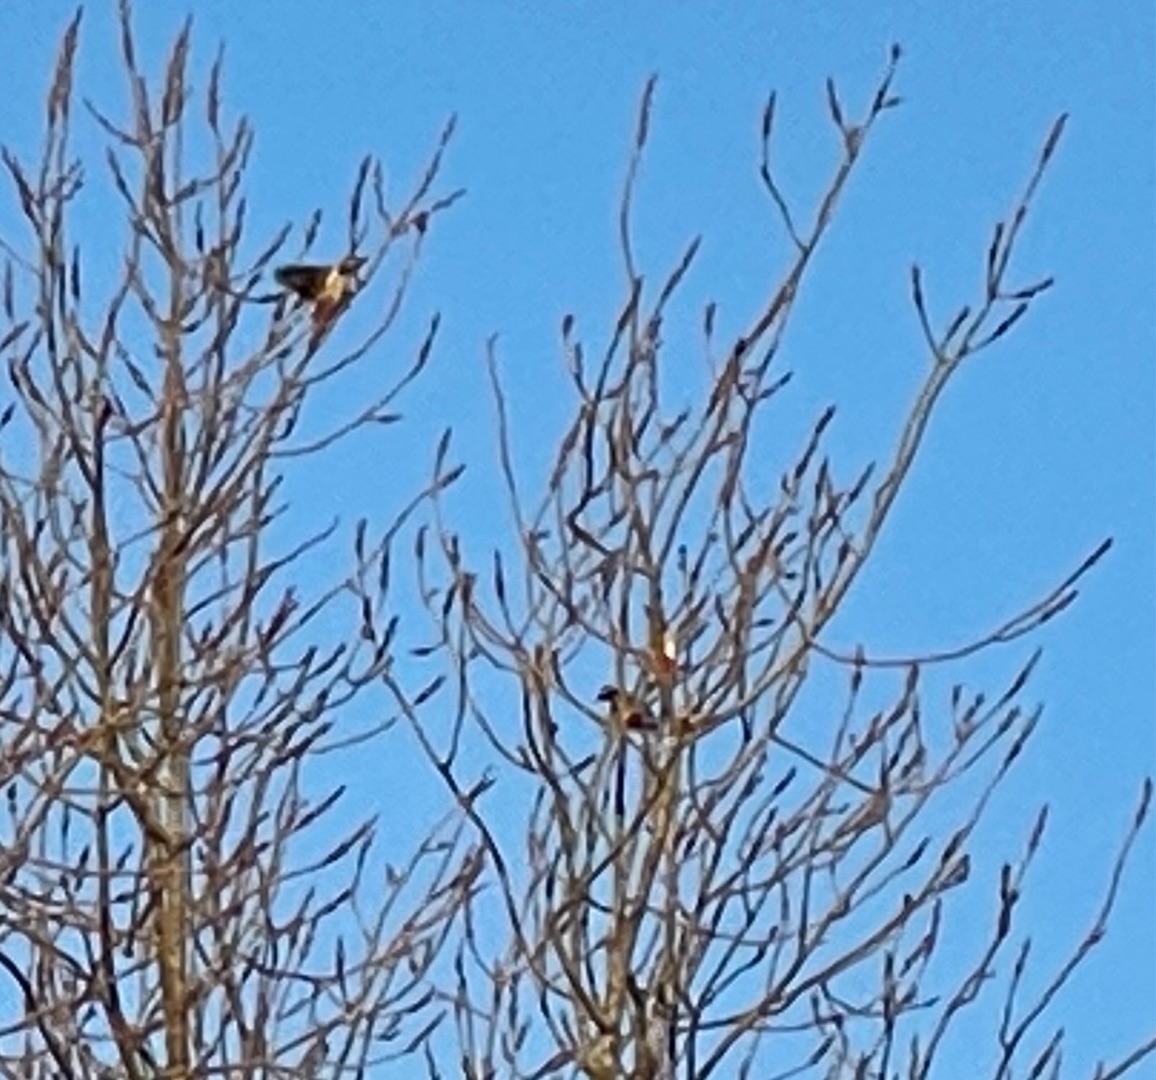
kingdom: Animalia
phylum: Chordata
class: Aves
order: Piciformes
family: Picidae
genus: Dendrocopos
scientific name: Dendrocopos major
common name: Stor flagspætte
